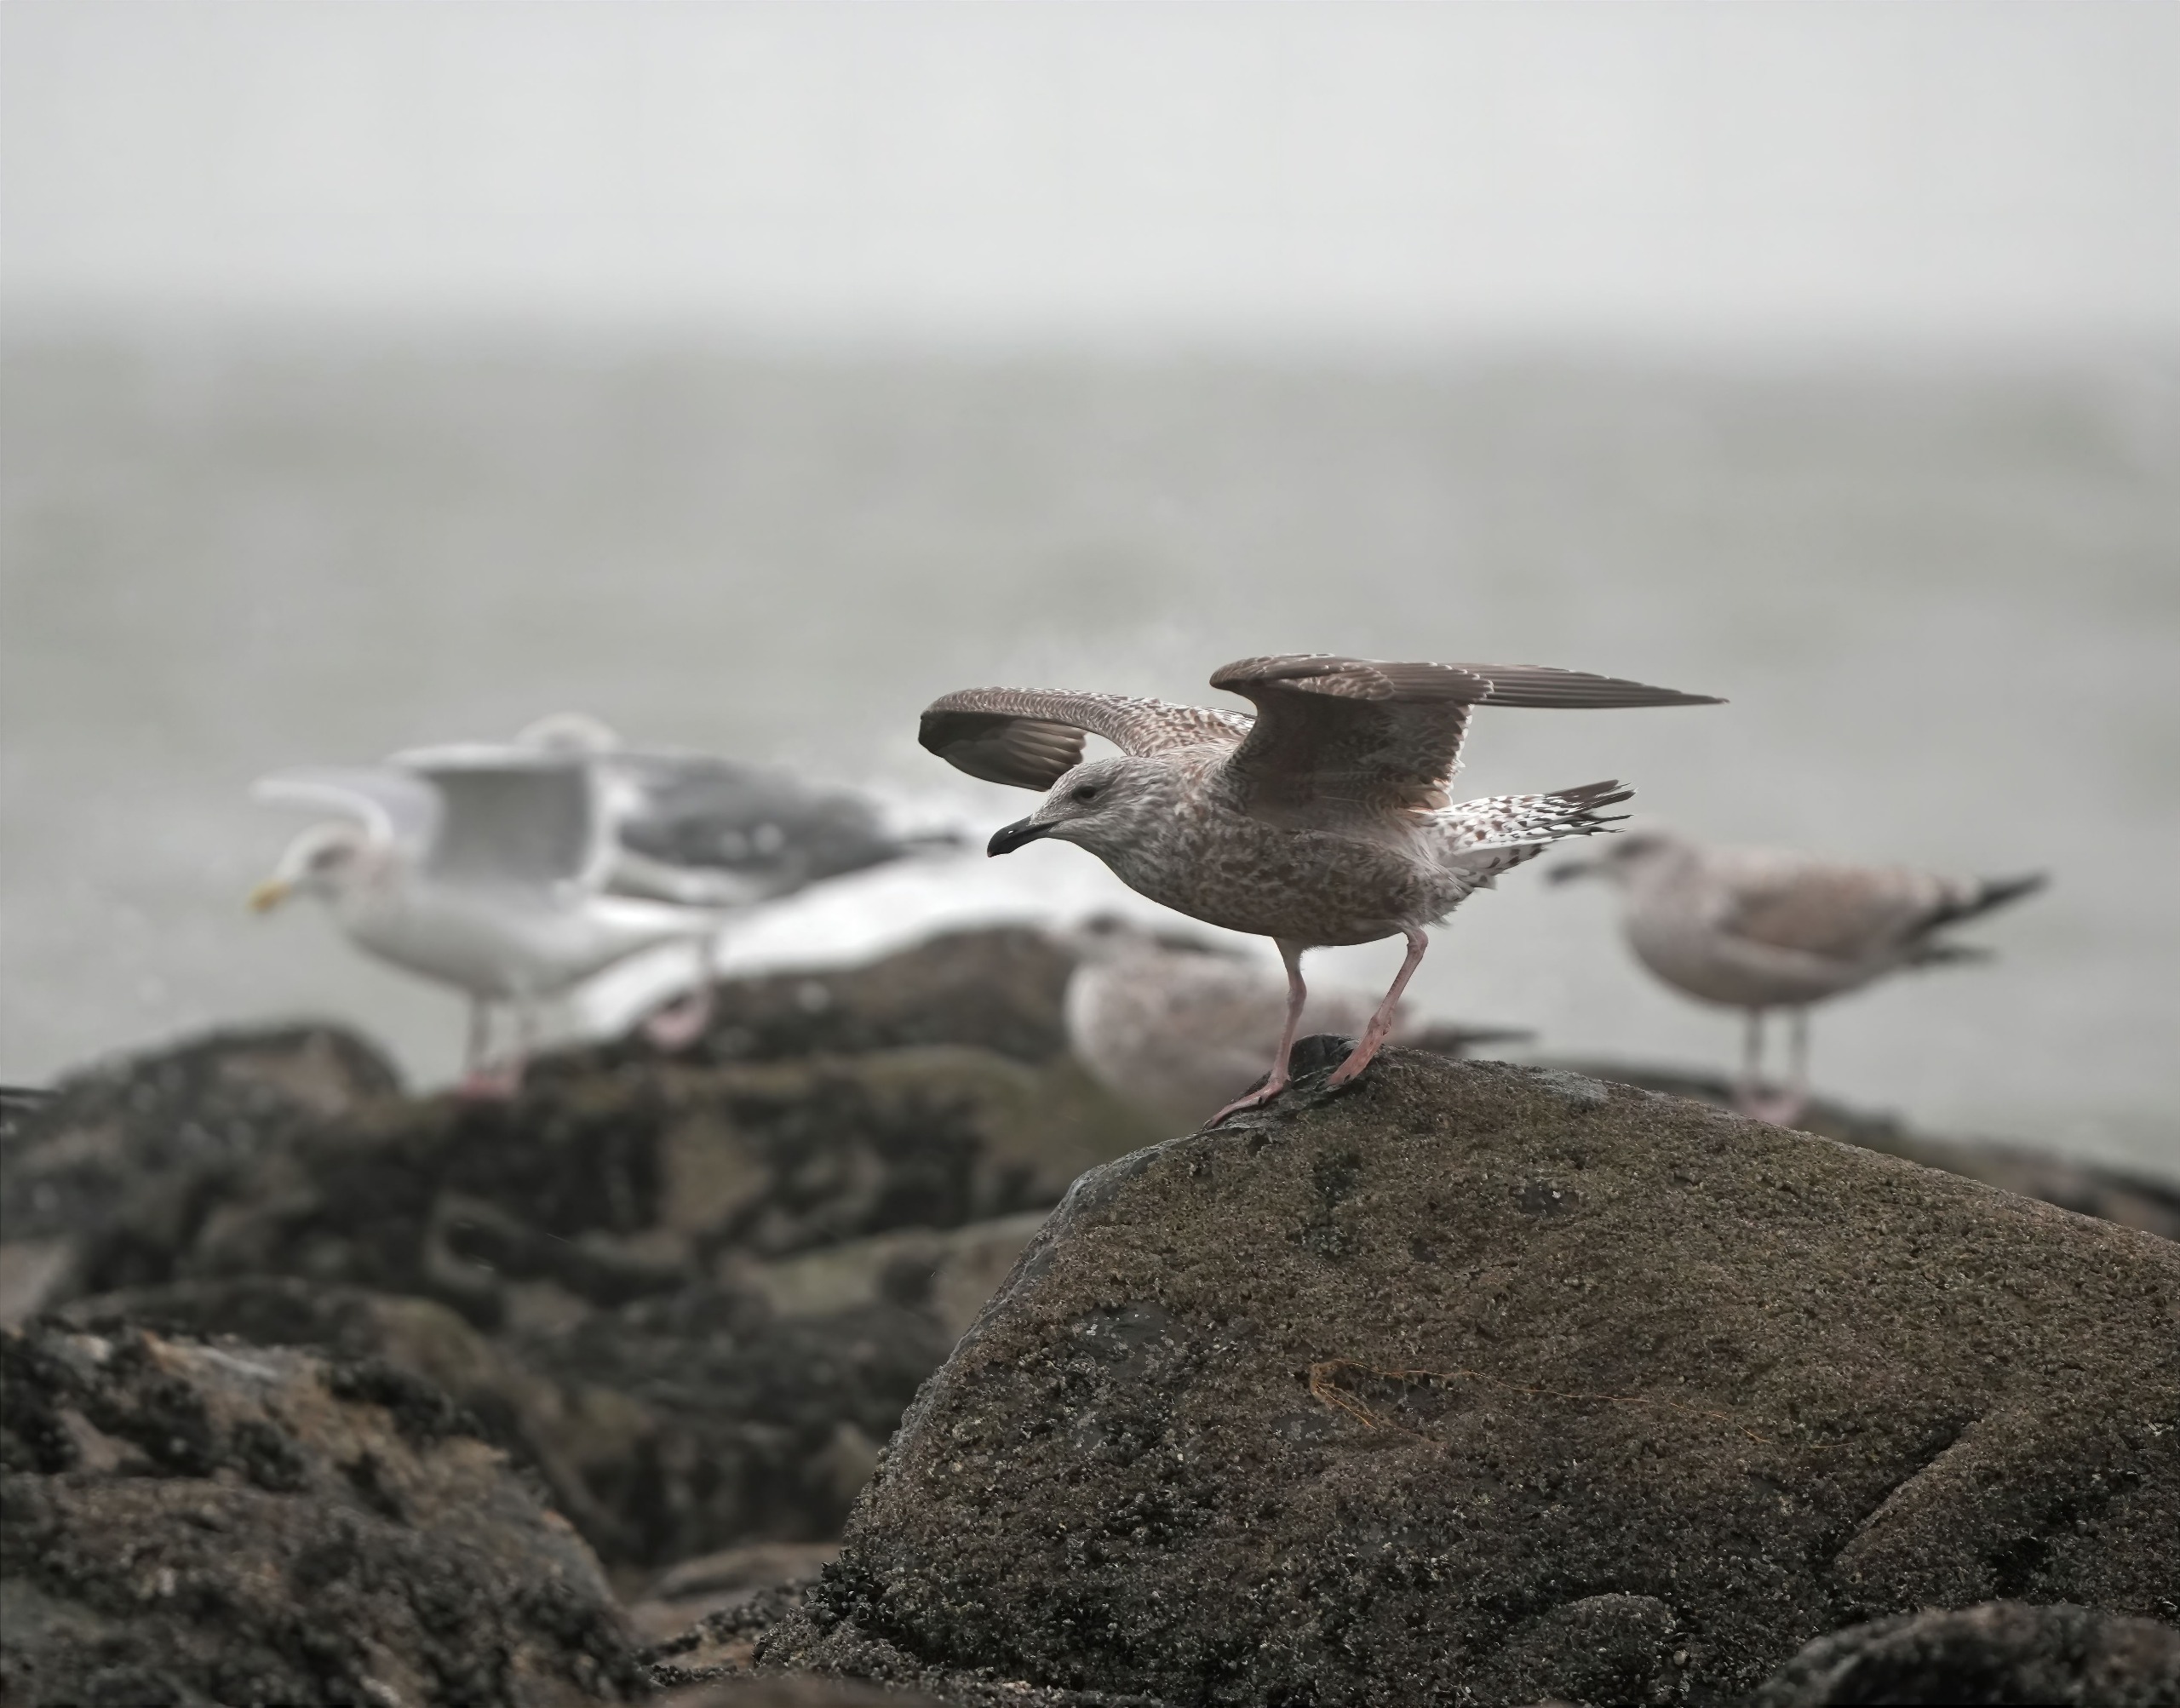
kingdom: Animalia
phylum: Chordata
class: Aves
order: Charadriiformes
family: Laridae
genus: Larus
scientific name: Larus argentatus
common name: Sølvmåge
